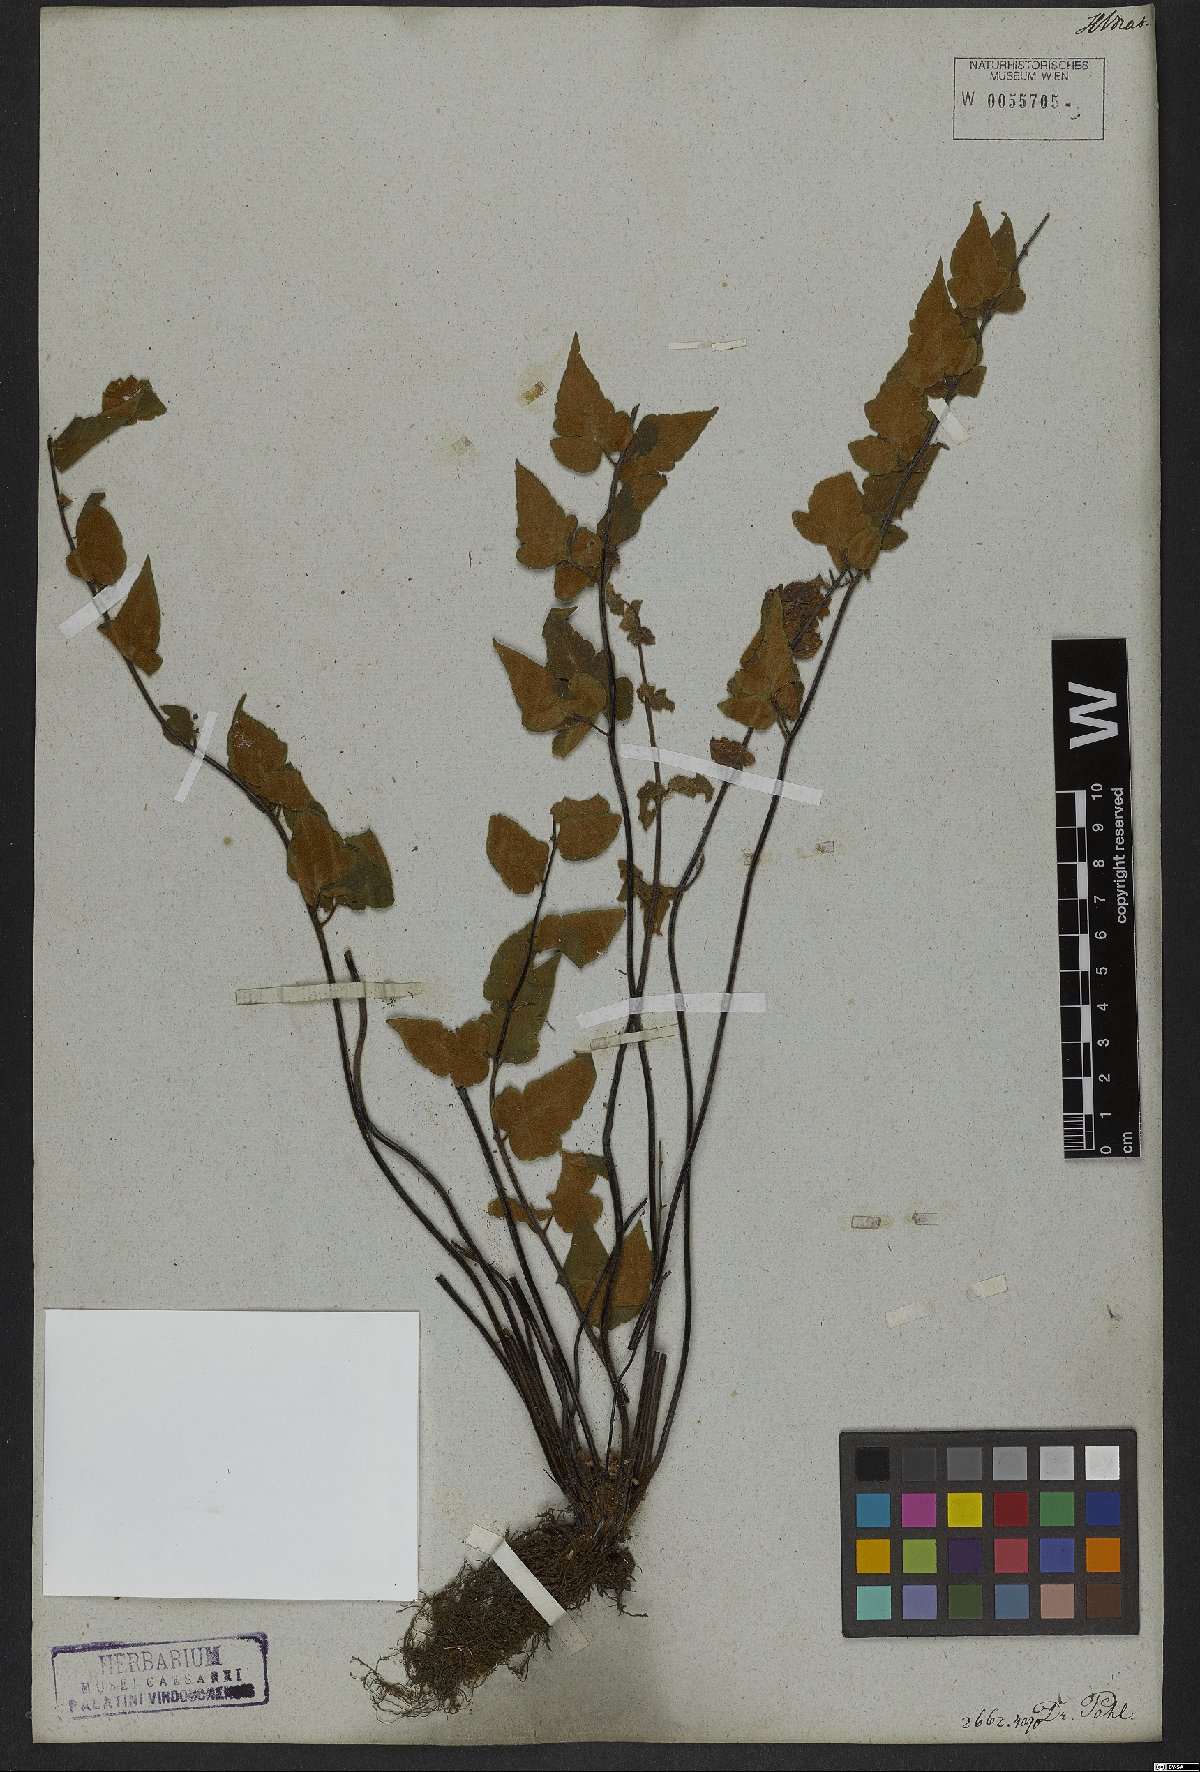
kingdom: Plantae
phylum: Tracheophyta
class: Polypodiopsida
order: Polypodiales
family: Pteridaceae
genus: Hemionitis
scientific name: Hemionitis tomentosa
